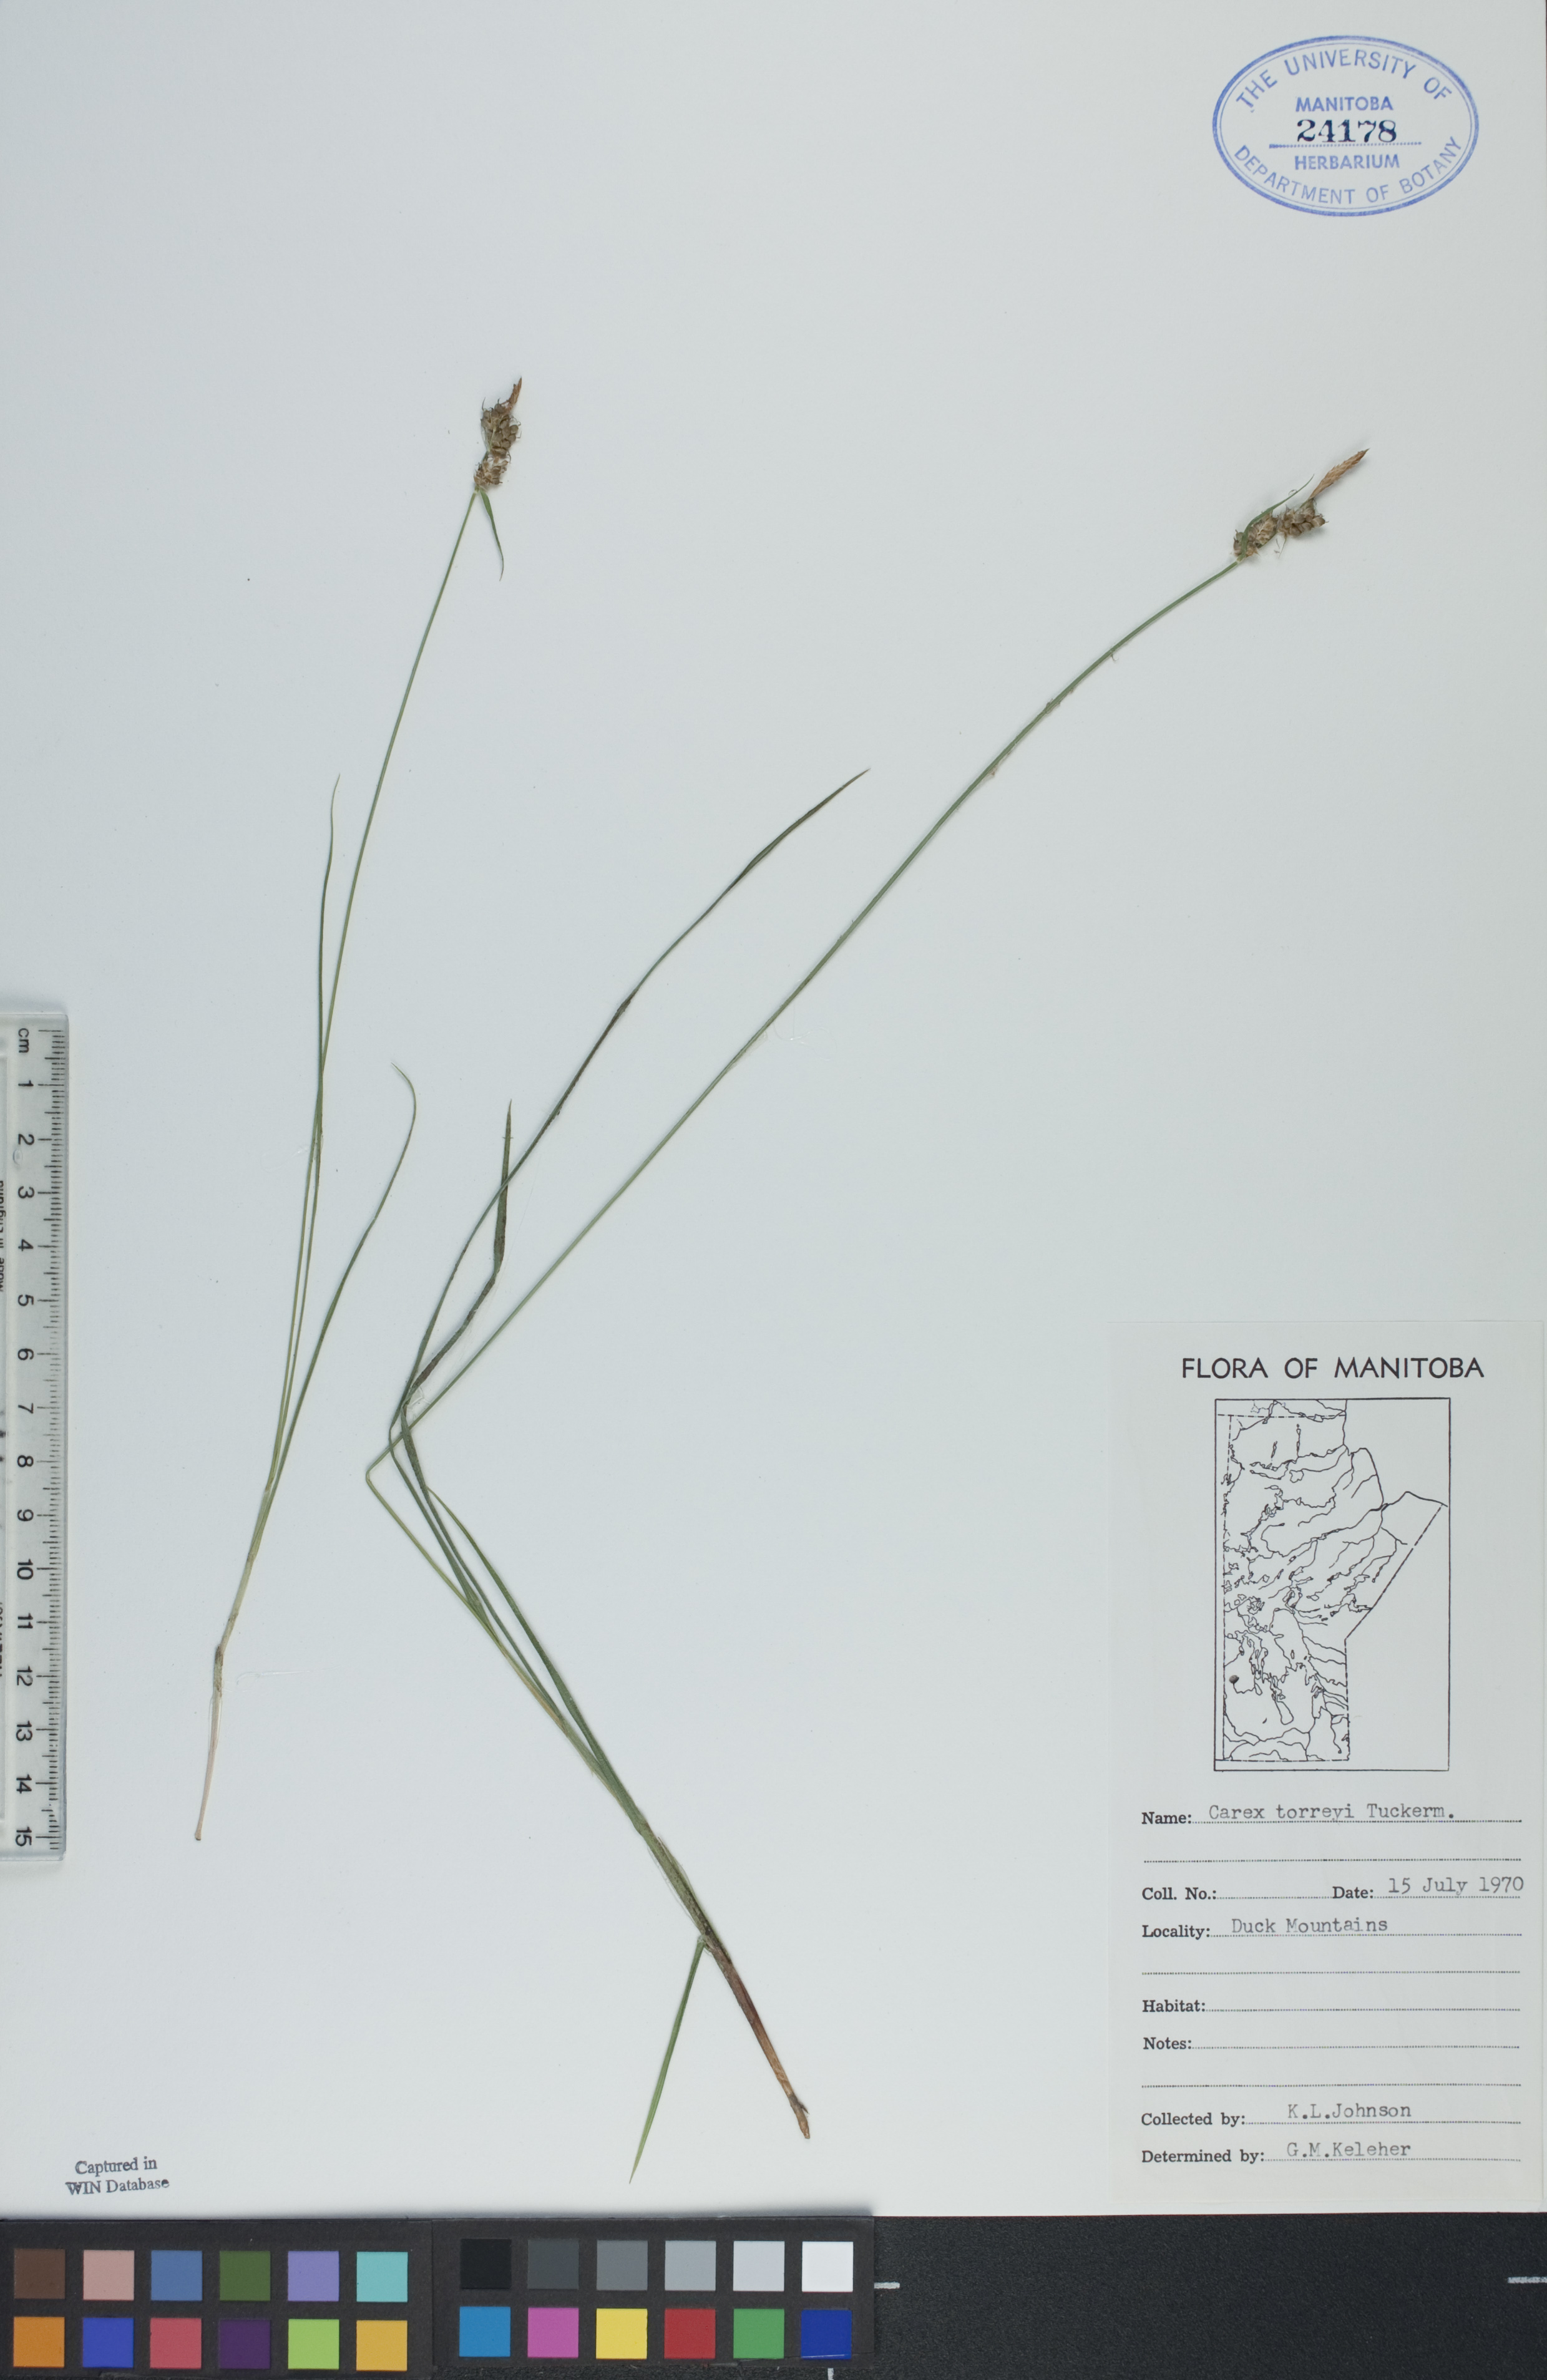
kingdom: Plantae
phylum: Tracheophyta
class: Liliopsida
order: Poales
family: Cyperaceae
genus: Carex
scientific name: Carex torreyi
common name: Torrey's sedge
